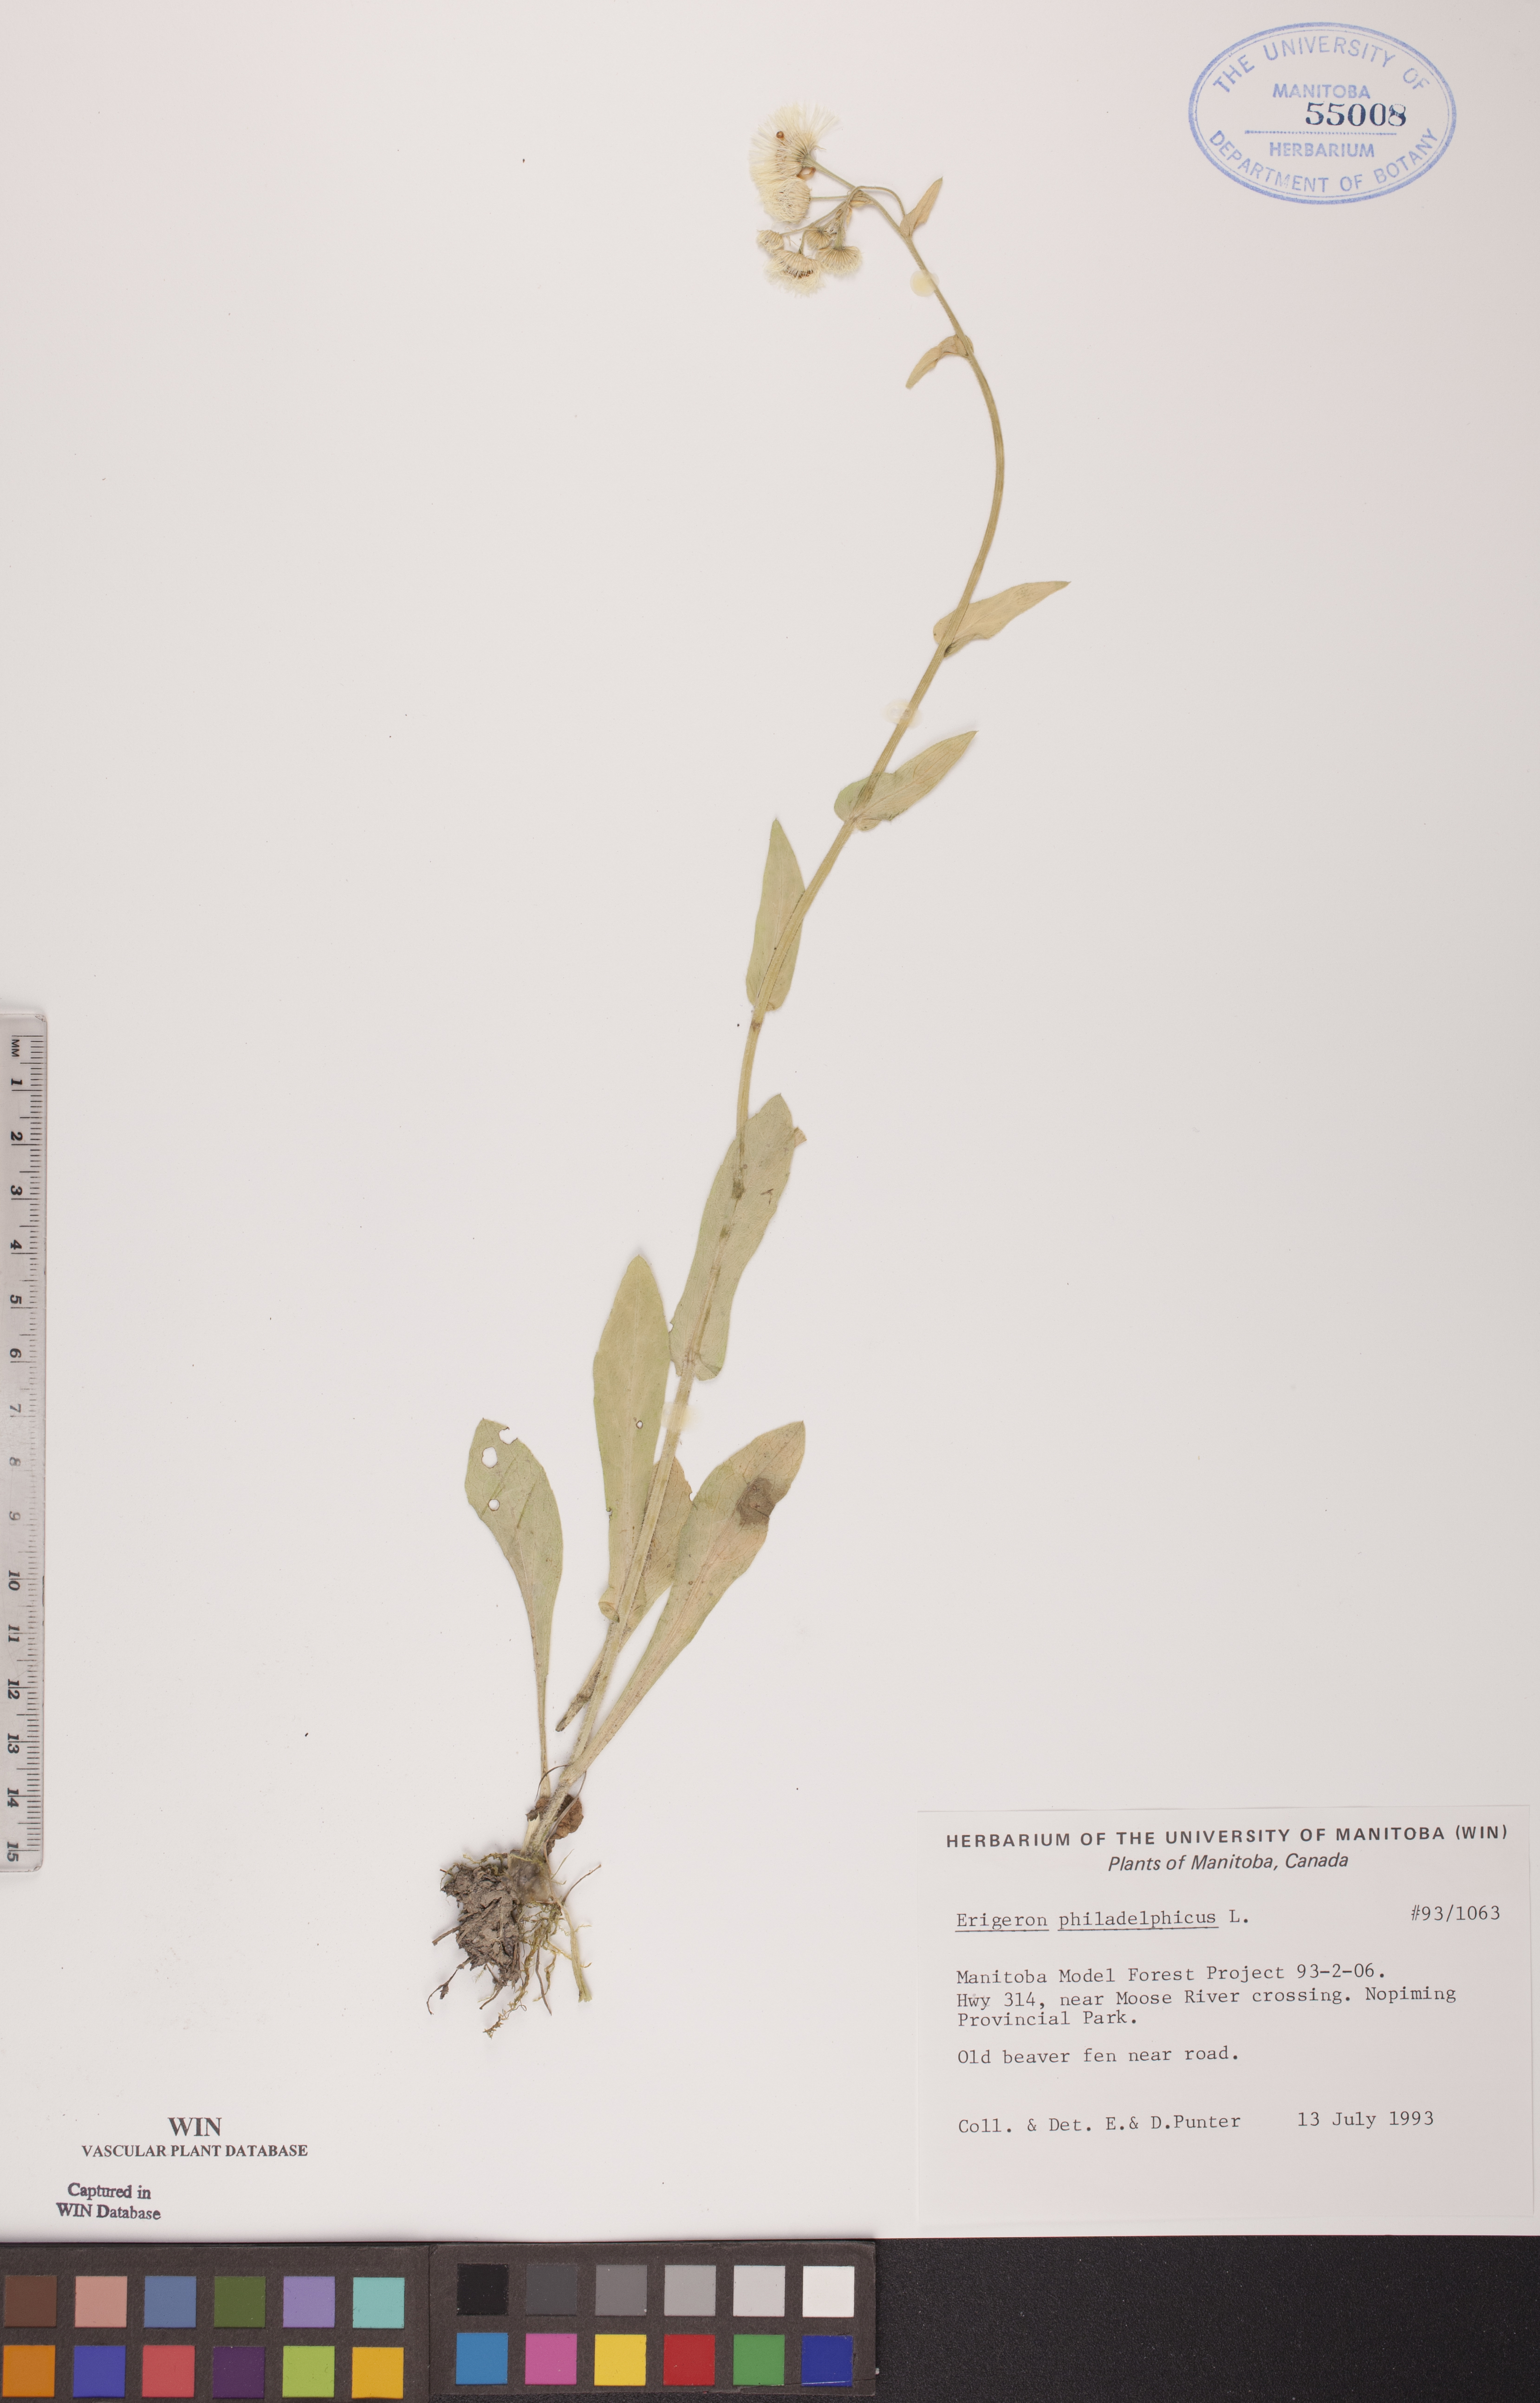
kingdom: Plantae
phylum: Tracheophyta
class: Magnoliopsida
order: Asterales
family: Asteraceae
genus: Erigeron
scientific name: Erigeron philadelphicus
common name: Robin's-plantain
